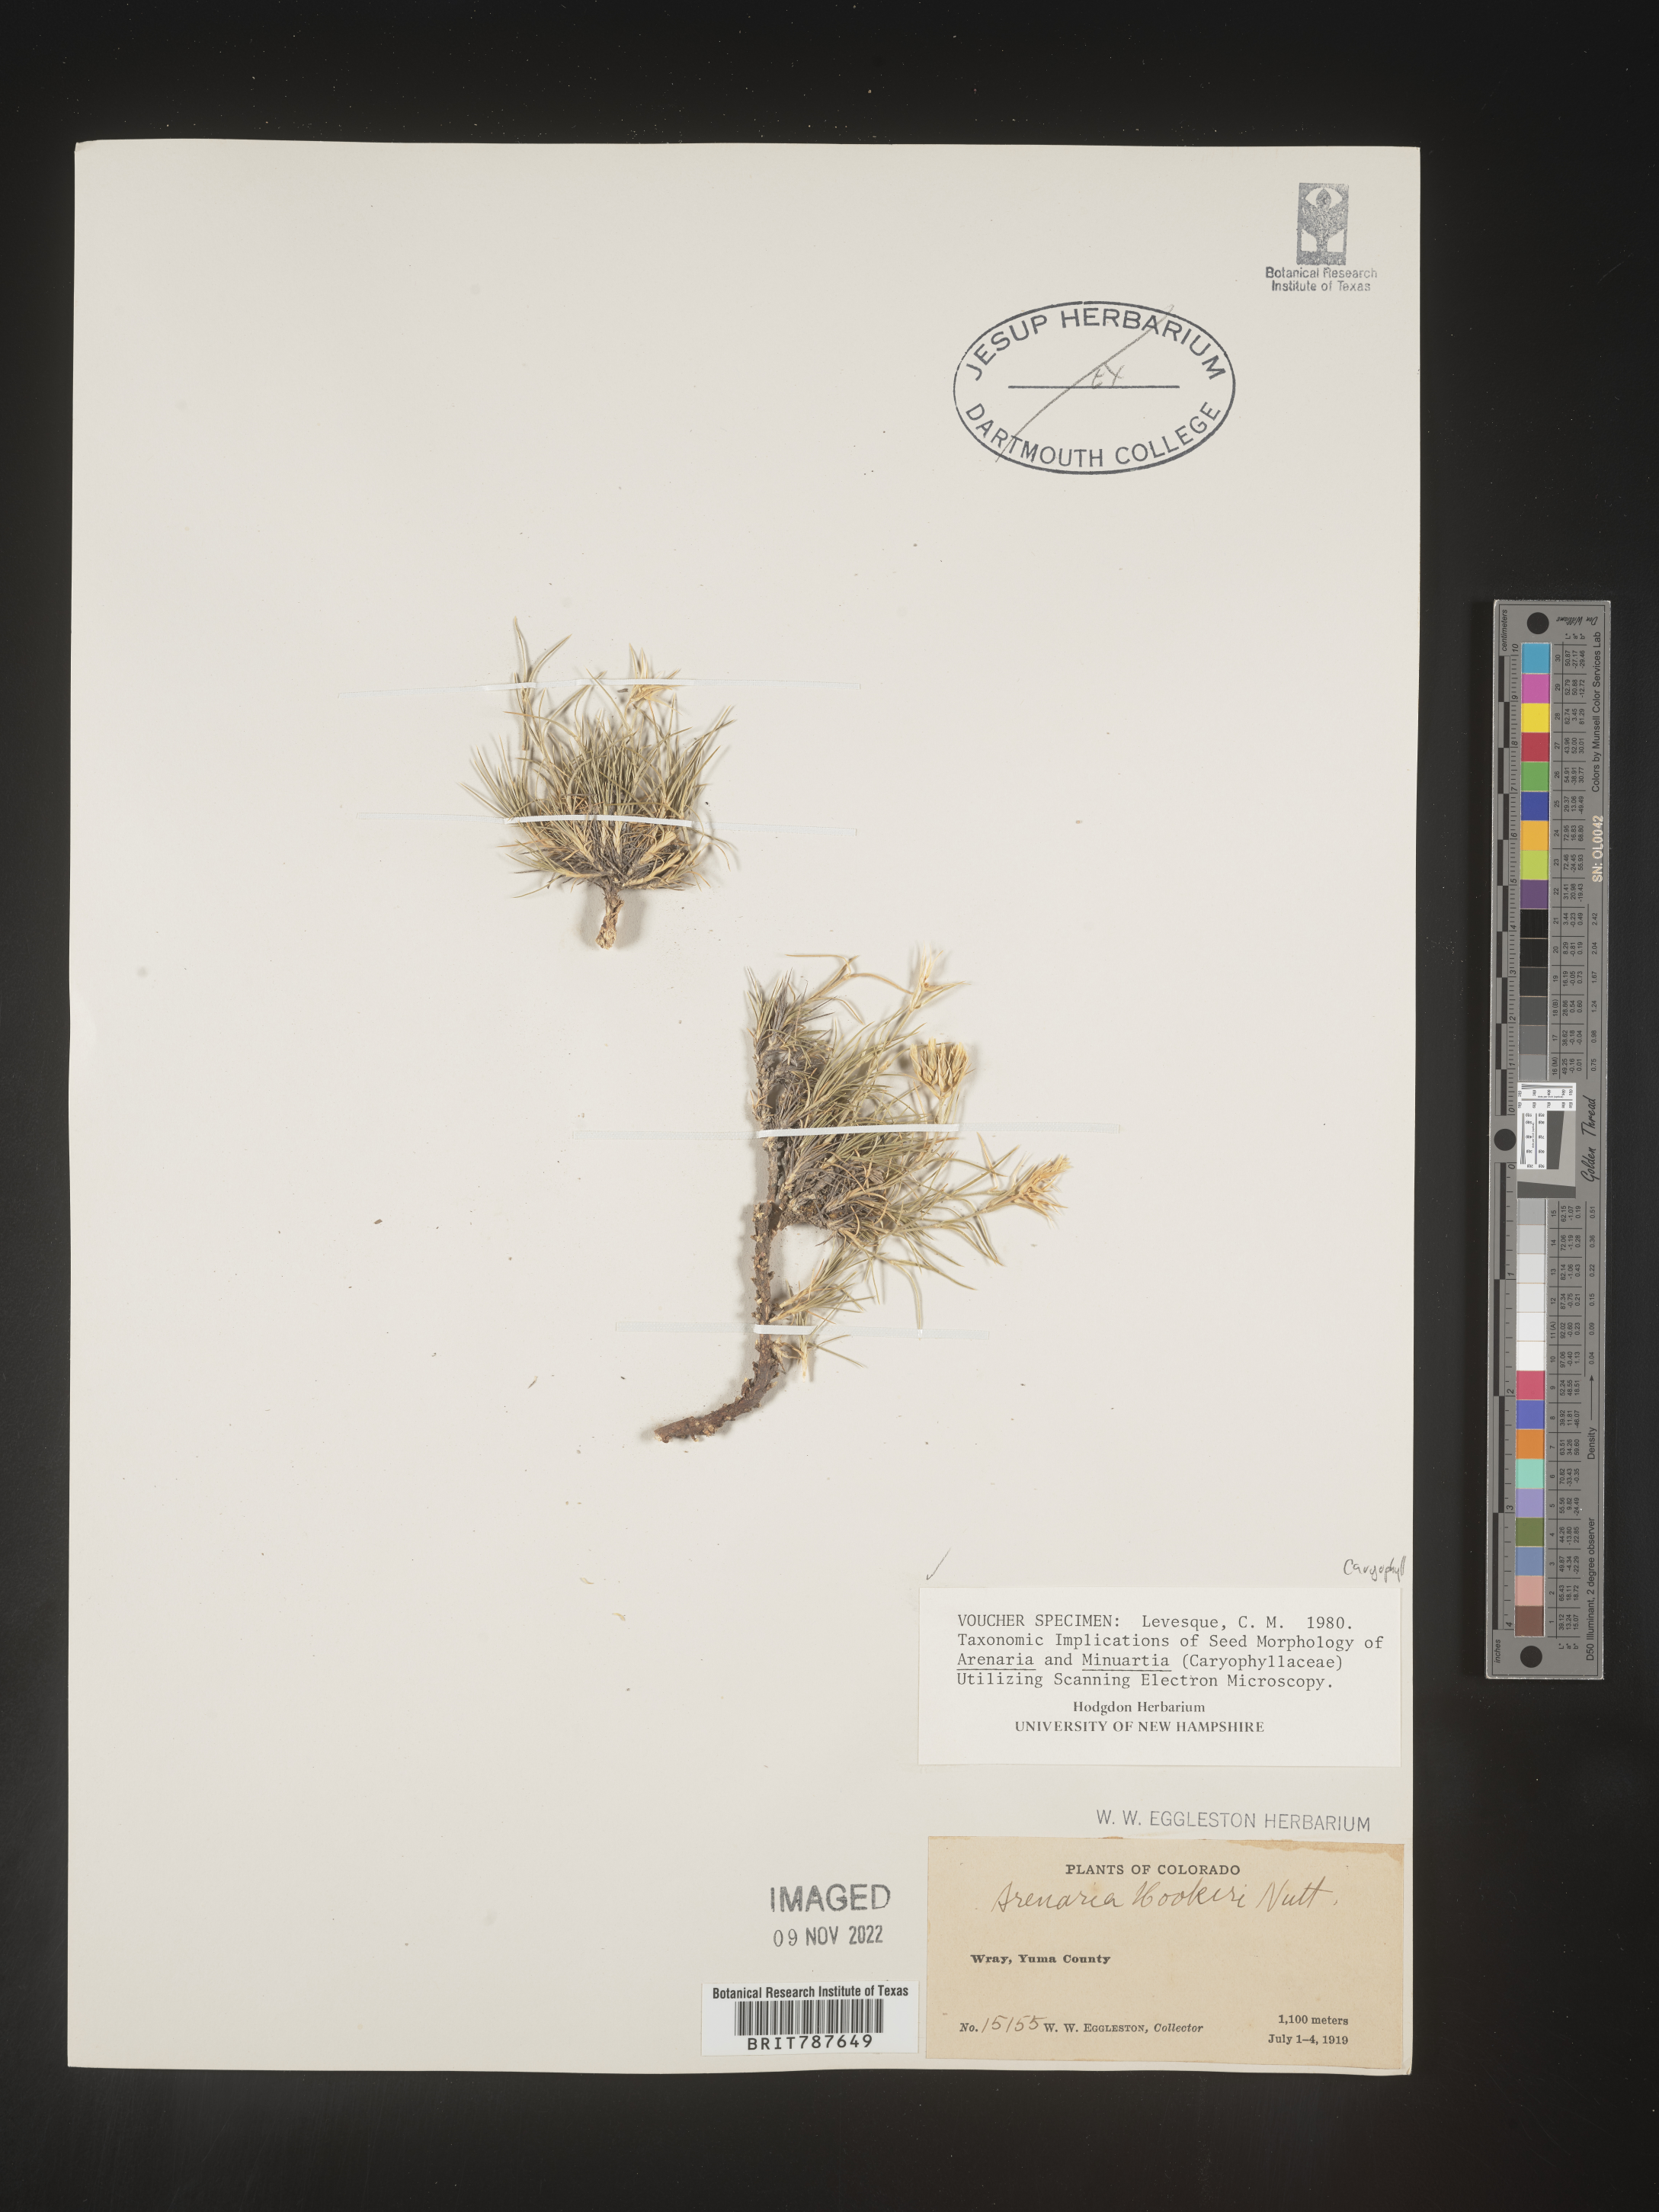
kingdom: Plantae
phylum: Tracheophyta
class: Magnoliopsida
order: Caryophyllales
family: Caryophyllaceae
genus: Arenaria
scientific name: Arenaria
